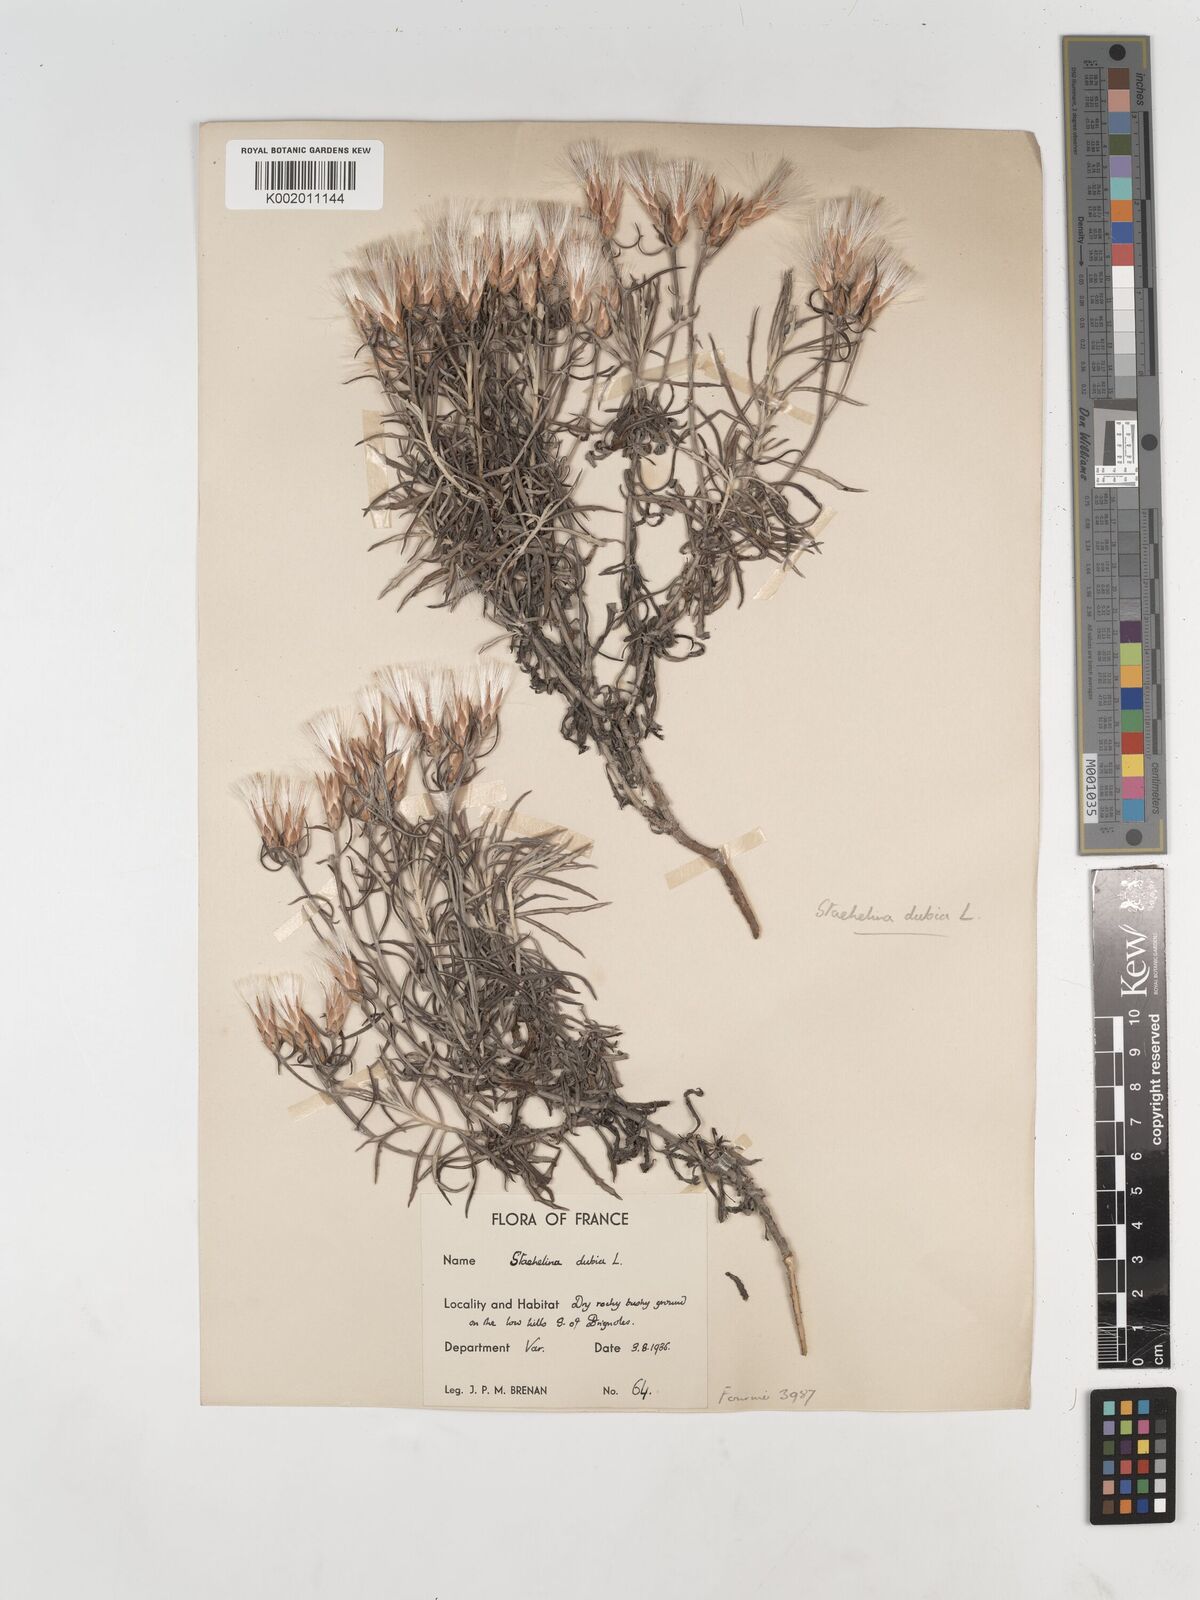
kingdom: Plantae
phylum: Tracheophyta
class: Magnoliopsida
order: Asterales
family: Asteraceae
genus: Staehelina
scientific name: Staehelina dubia
